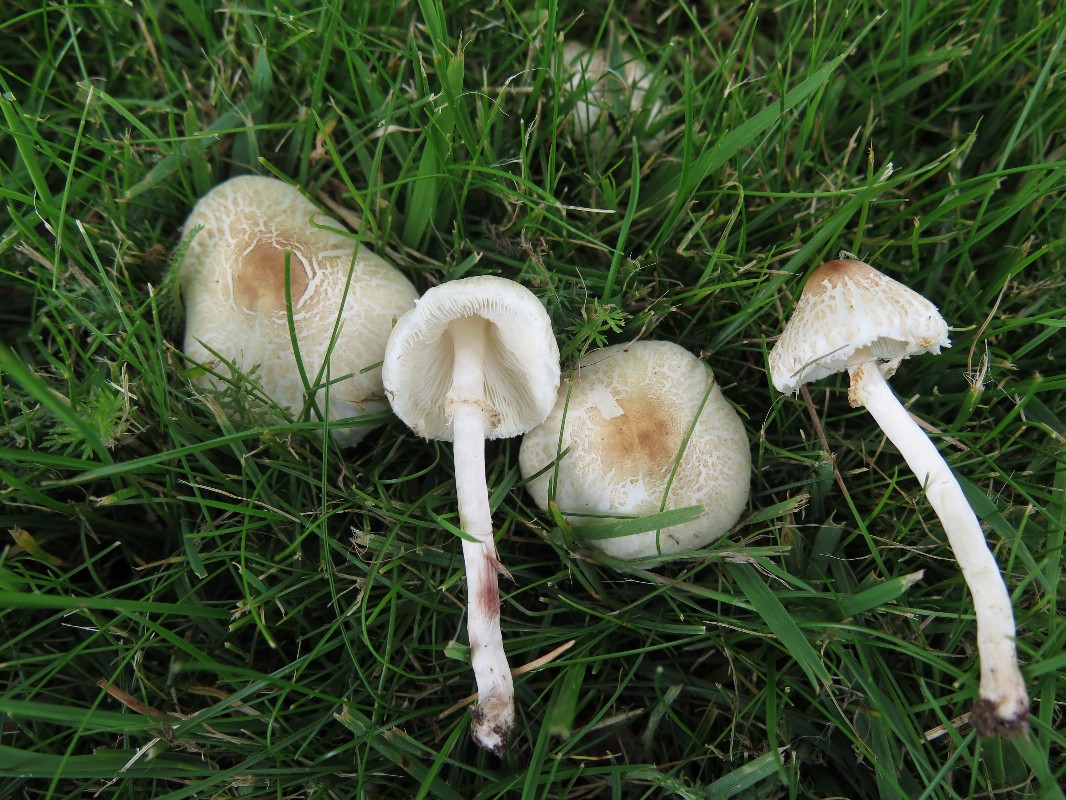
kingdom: Fungi
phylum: Basidiomycota
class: Agaricomycetes
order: Agaricales
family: Agaricaceae
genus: Lepiota
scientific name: Lepiota cristata
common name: stinkende parasolhat
